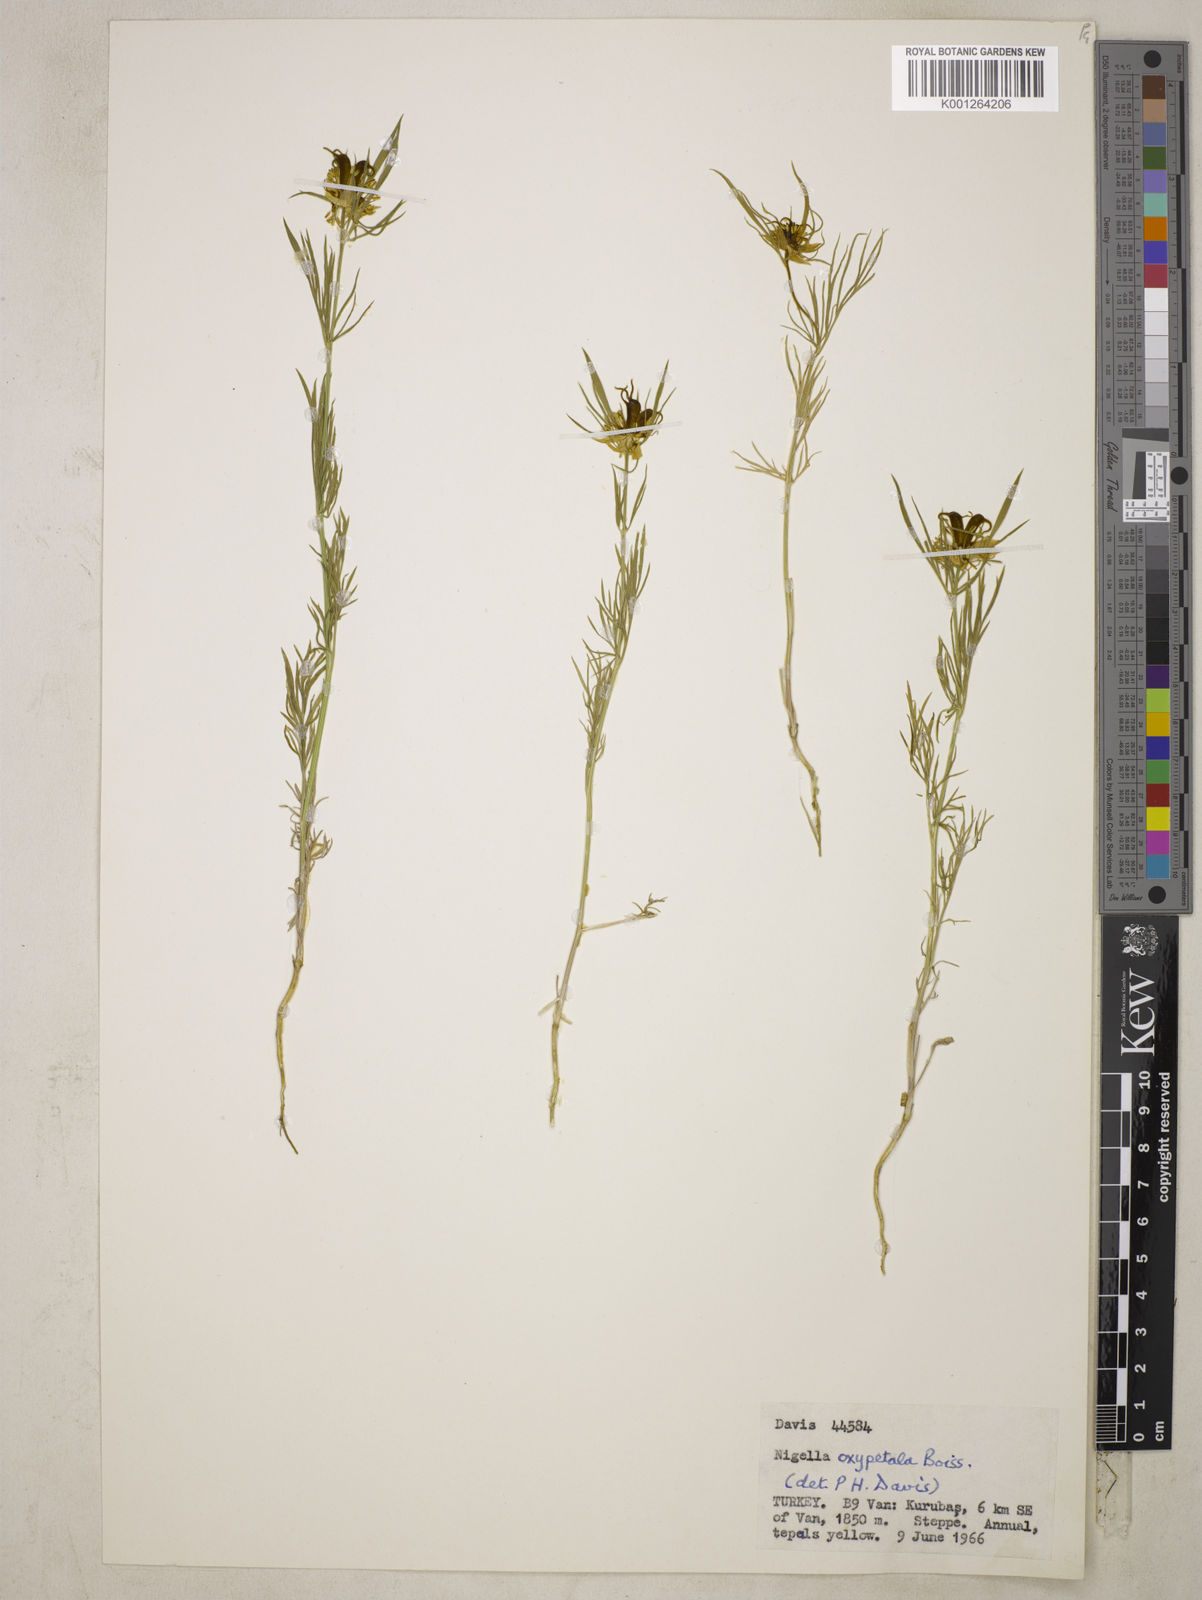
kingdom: Plantae
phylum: Tracheophyta
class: Magnoliopsida
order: Ranunculales
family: Ranunculaceae
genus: Nigella
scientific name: Nigella oxypetala
